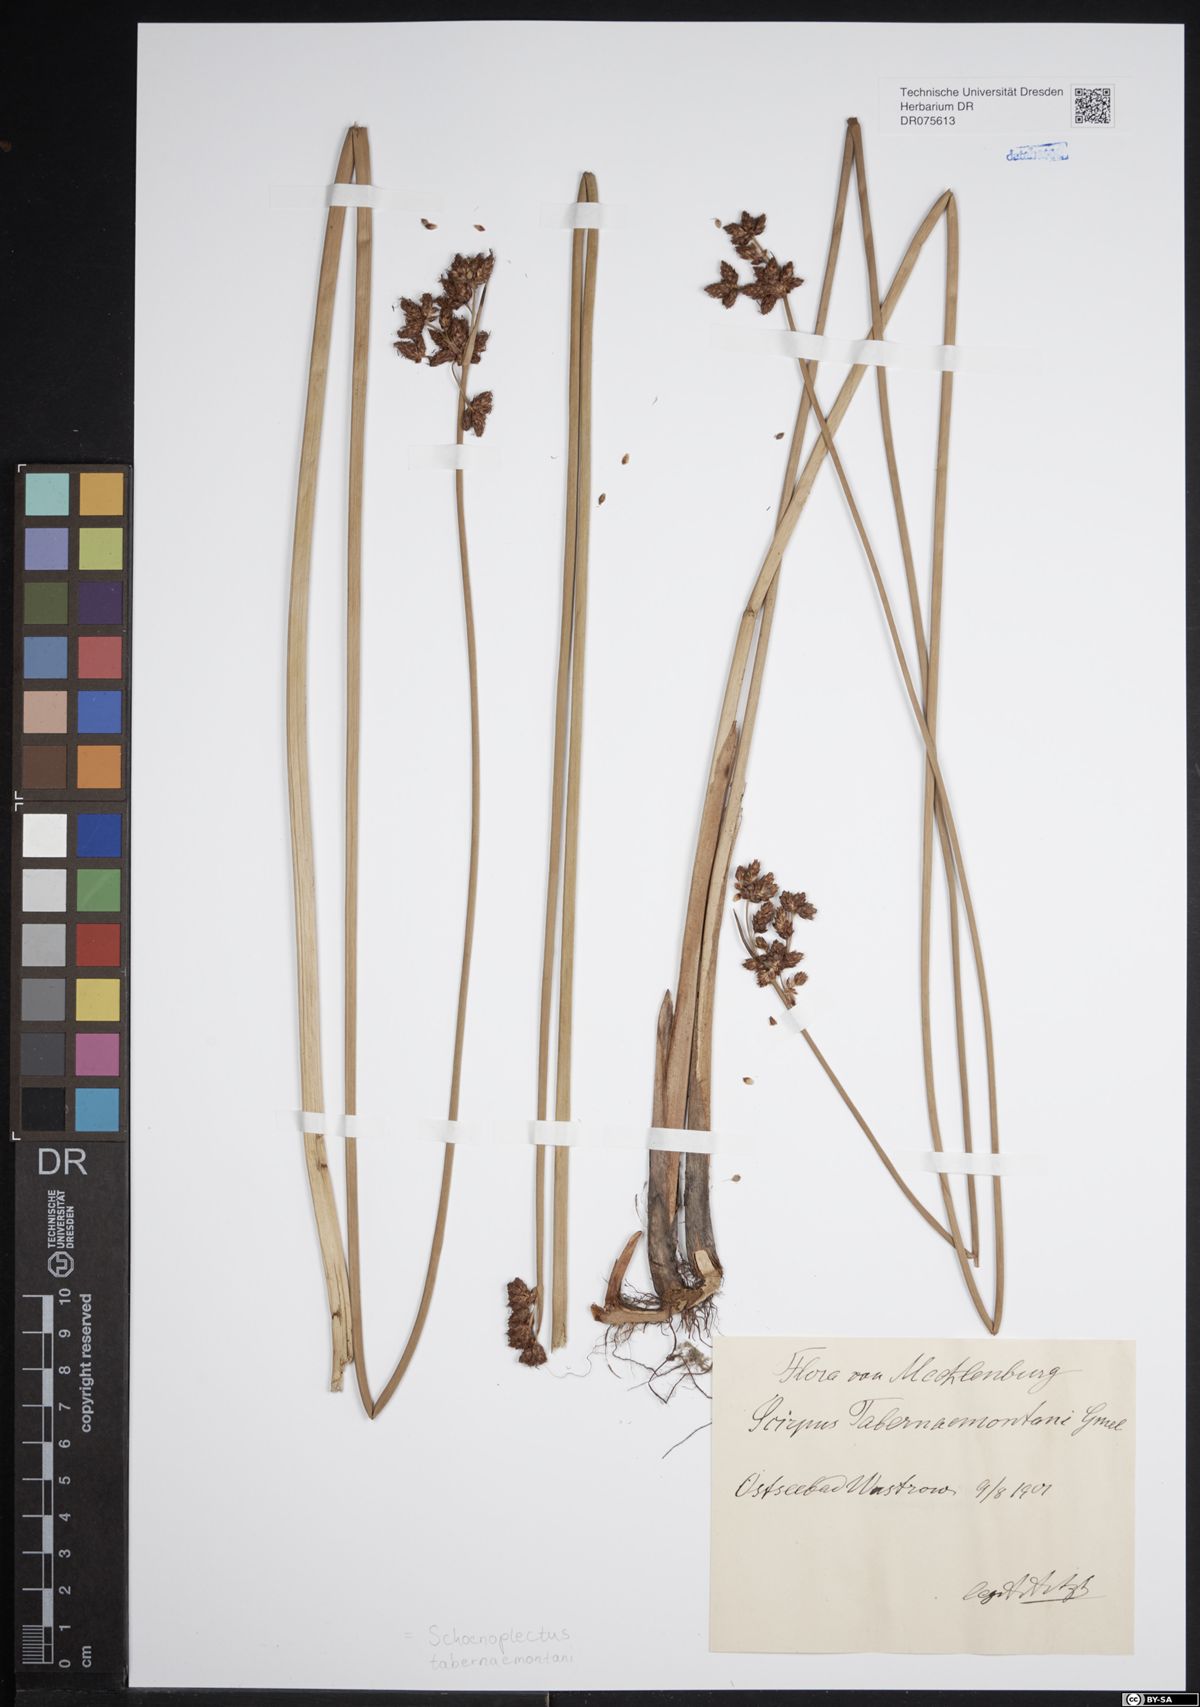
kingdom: Plantae
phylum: Tracheophyta
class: Liliopsida
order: Poales
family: Cyperaceae
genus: Schoenoplectus
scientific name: Schoenoplectus tabernaemontani
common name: Grey club-rush
